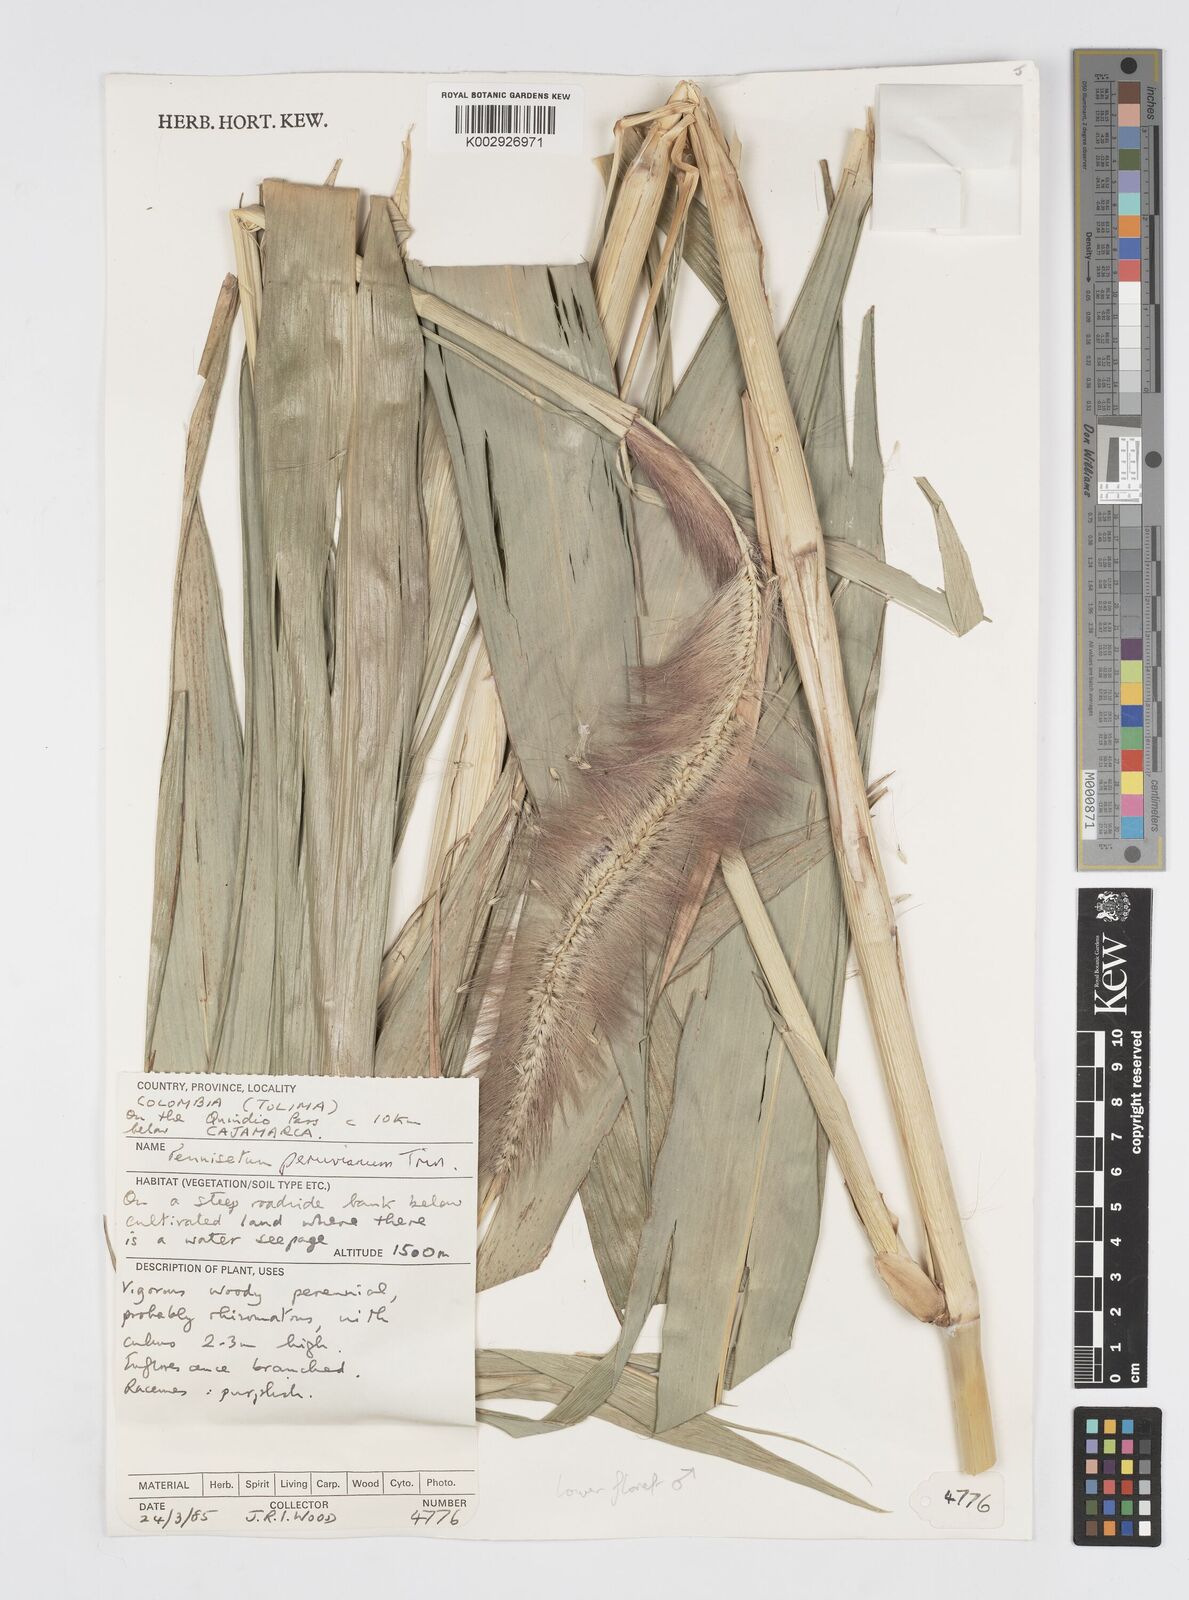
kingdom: Plantae
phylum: Tracheophyta
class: Liliopsida
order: Poales
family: Poaceae
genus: Cenchrus
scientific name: Cenchrus peruvianus
